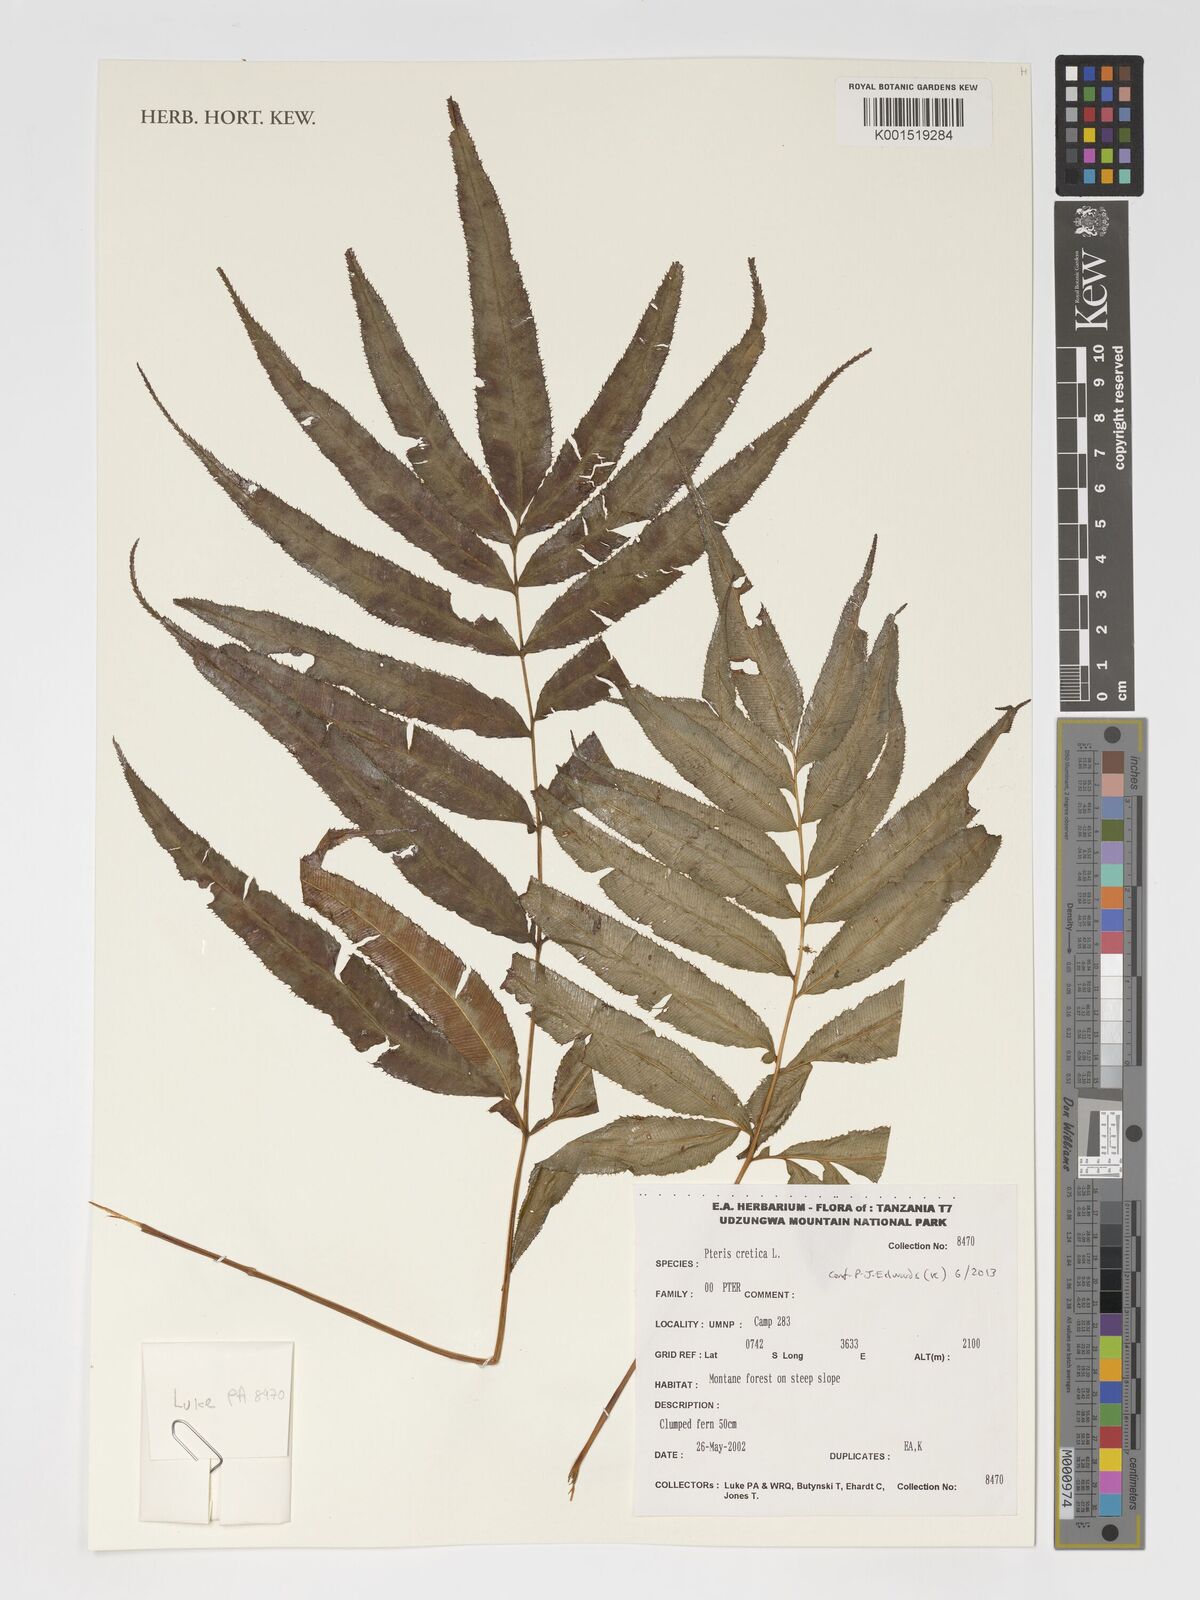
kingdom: Plantae
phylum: Tracheophyta
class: Polypodiopsida
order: Polypodiales
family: Pteridaceae
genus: Pteris
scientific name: Pteris cretica
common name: Ribbon fern
